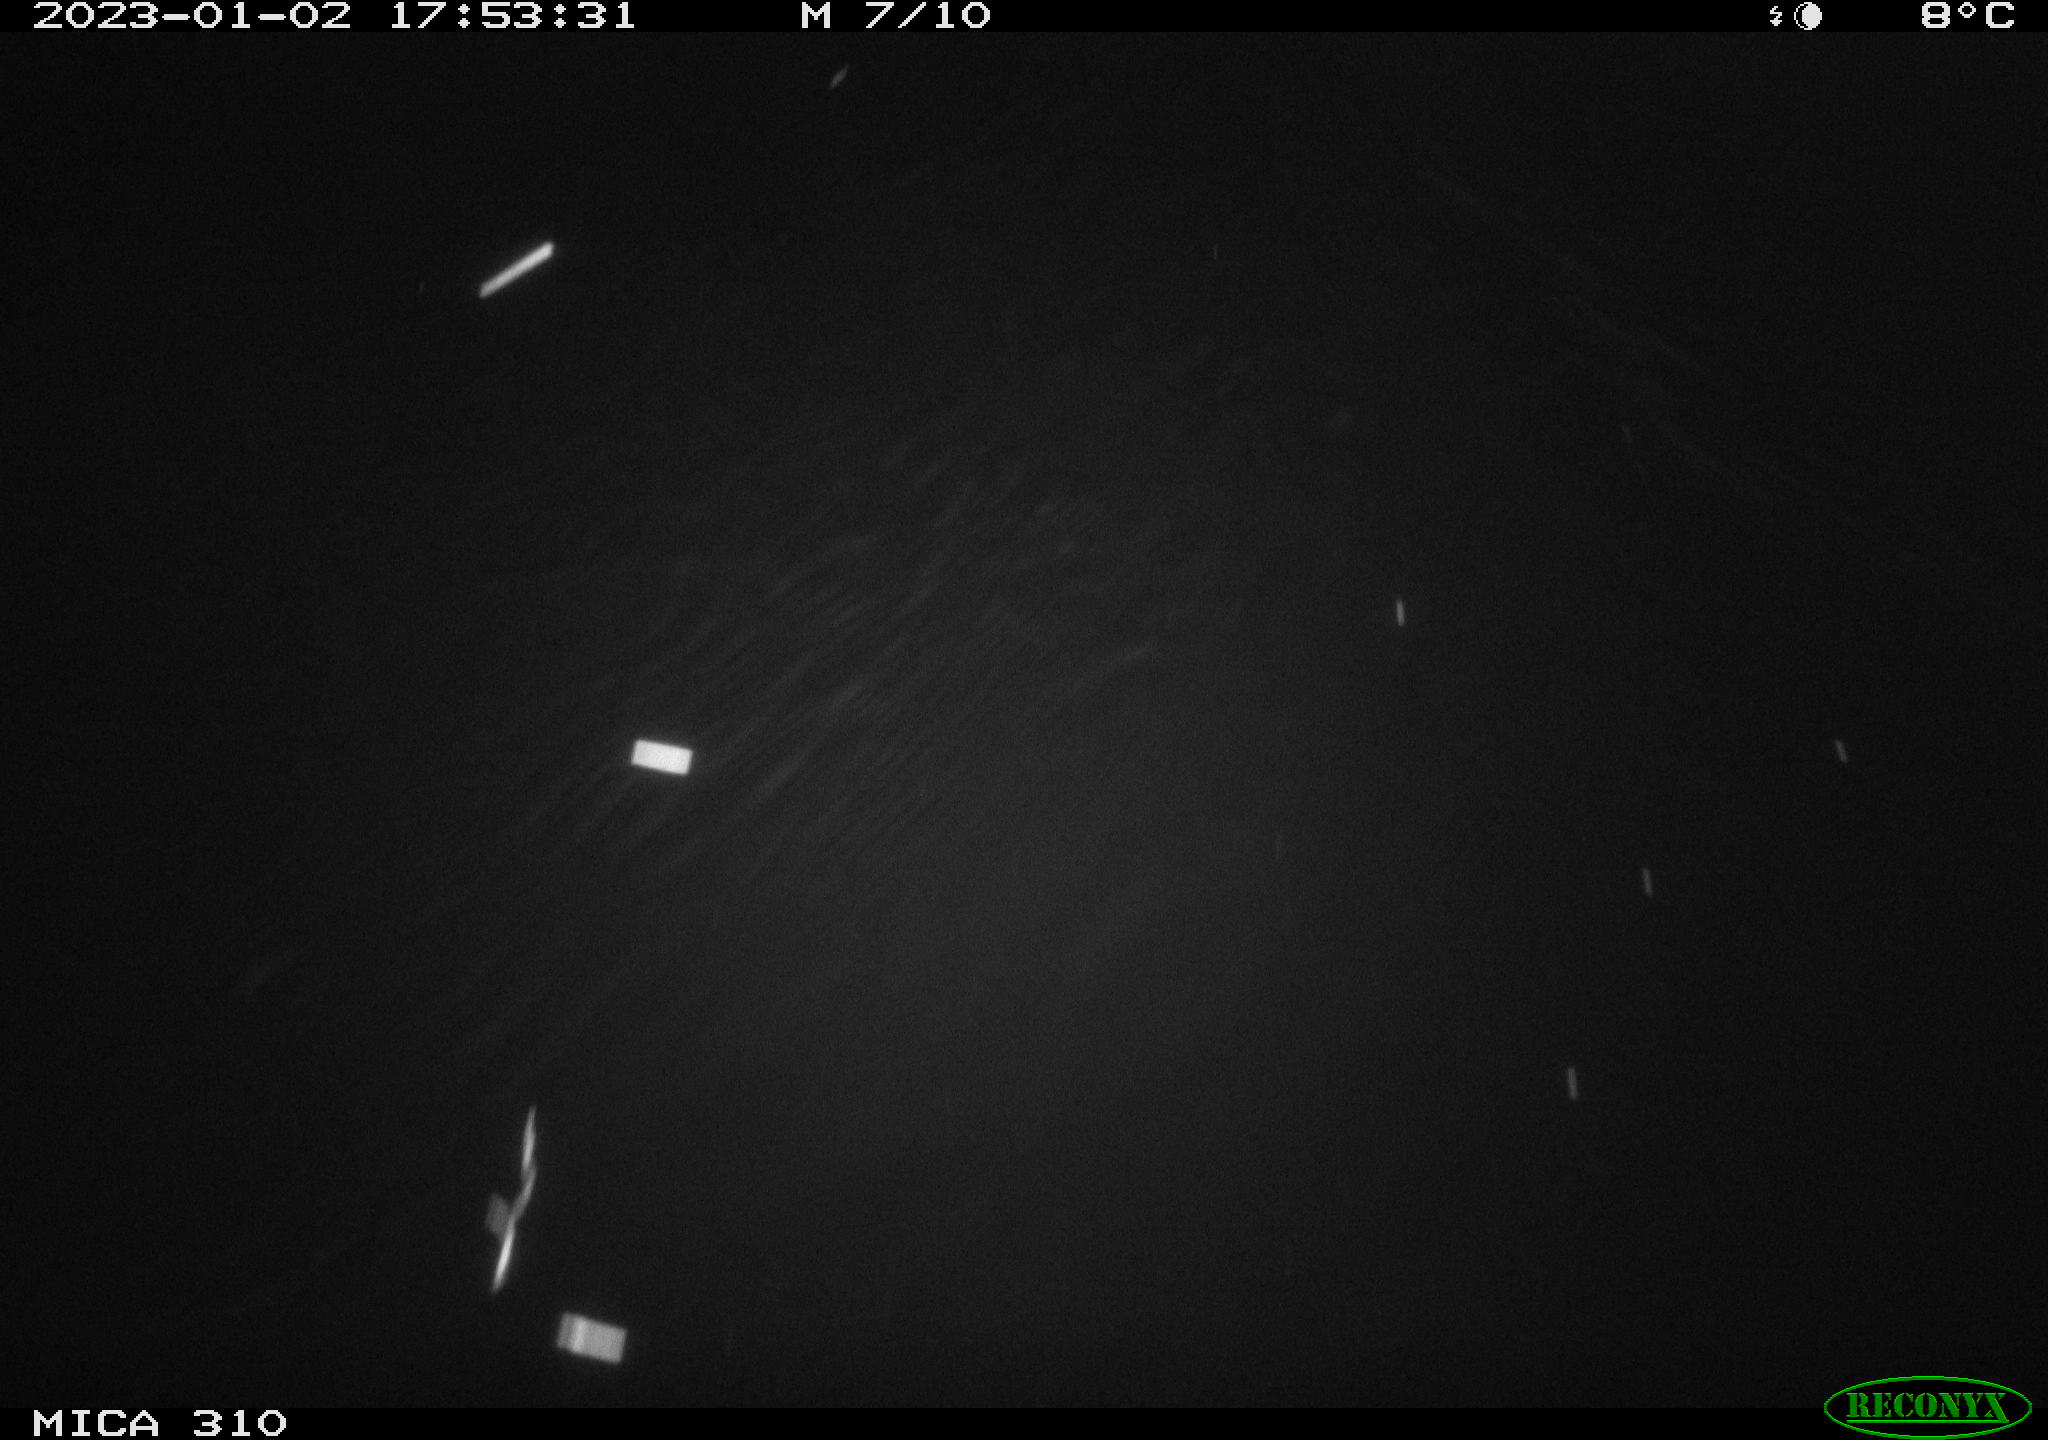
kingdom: Animalia
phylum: Chordata
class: Mammalia
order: Rodentia
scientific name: Rodentia
